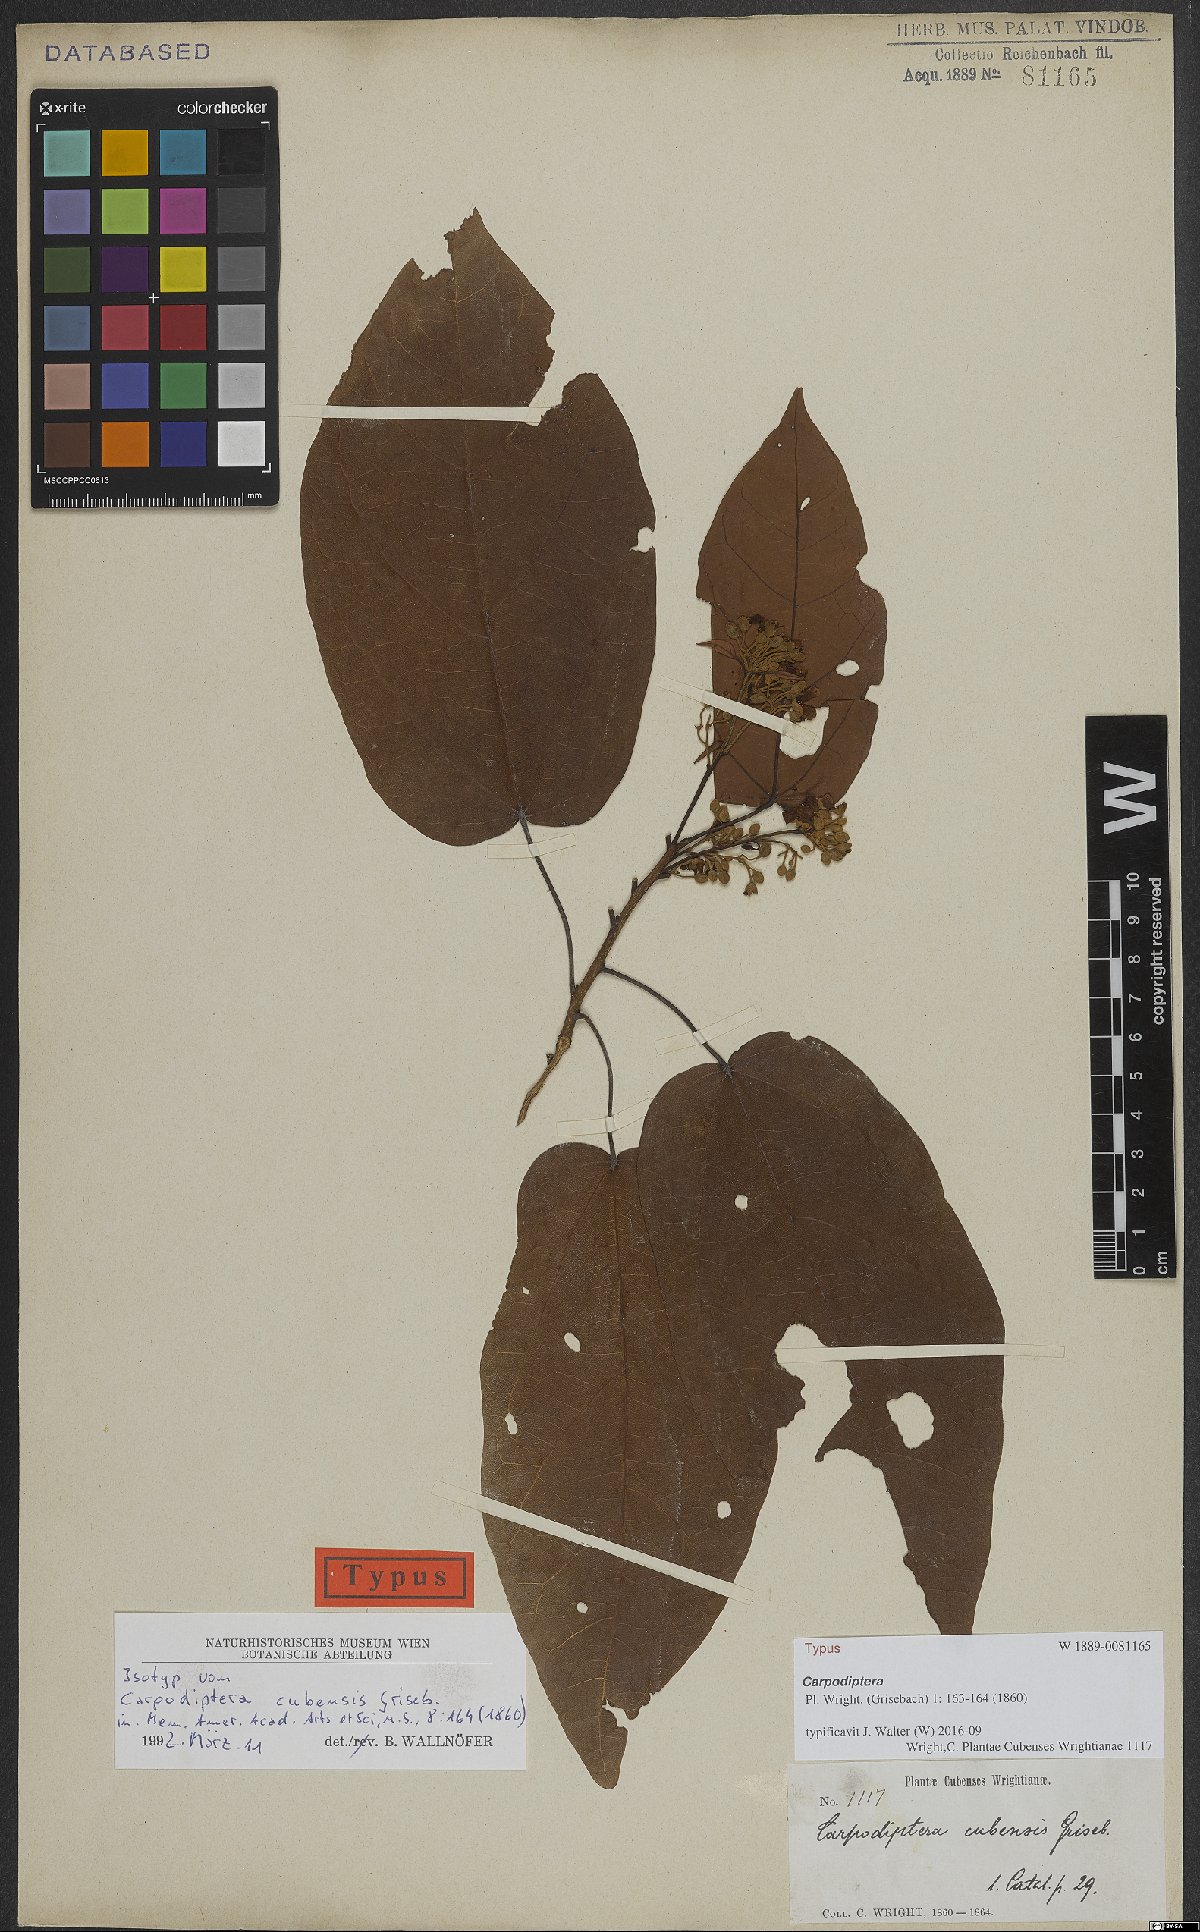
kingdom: Plantae
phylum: Tracheophyta
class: Magnoliopsida
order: Malvales
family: Malvaceae
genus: Berrya
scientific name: Berrya cubensis
